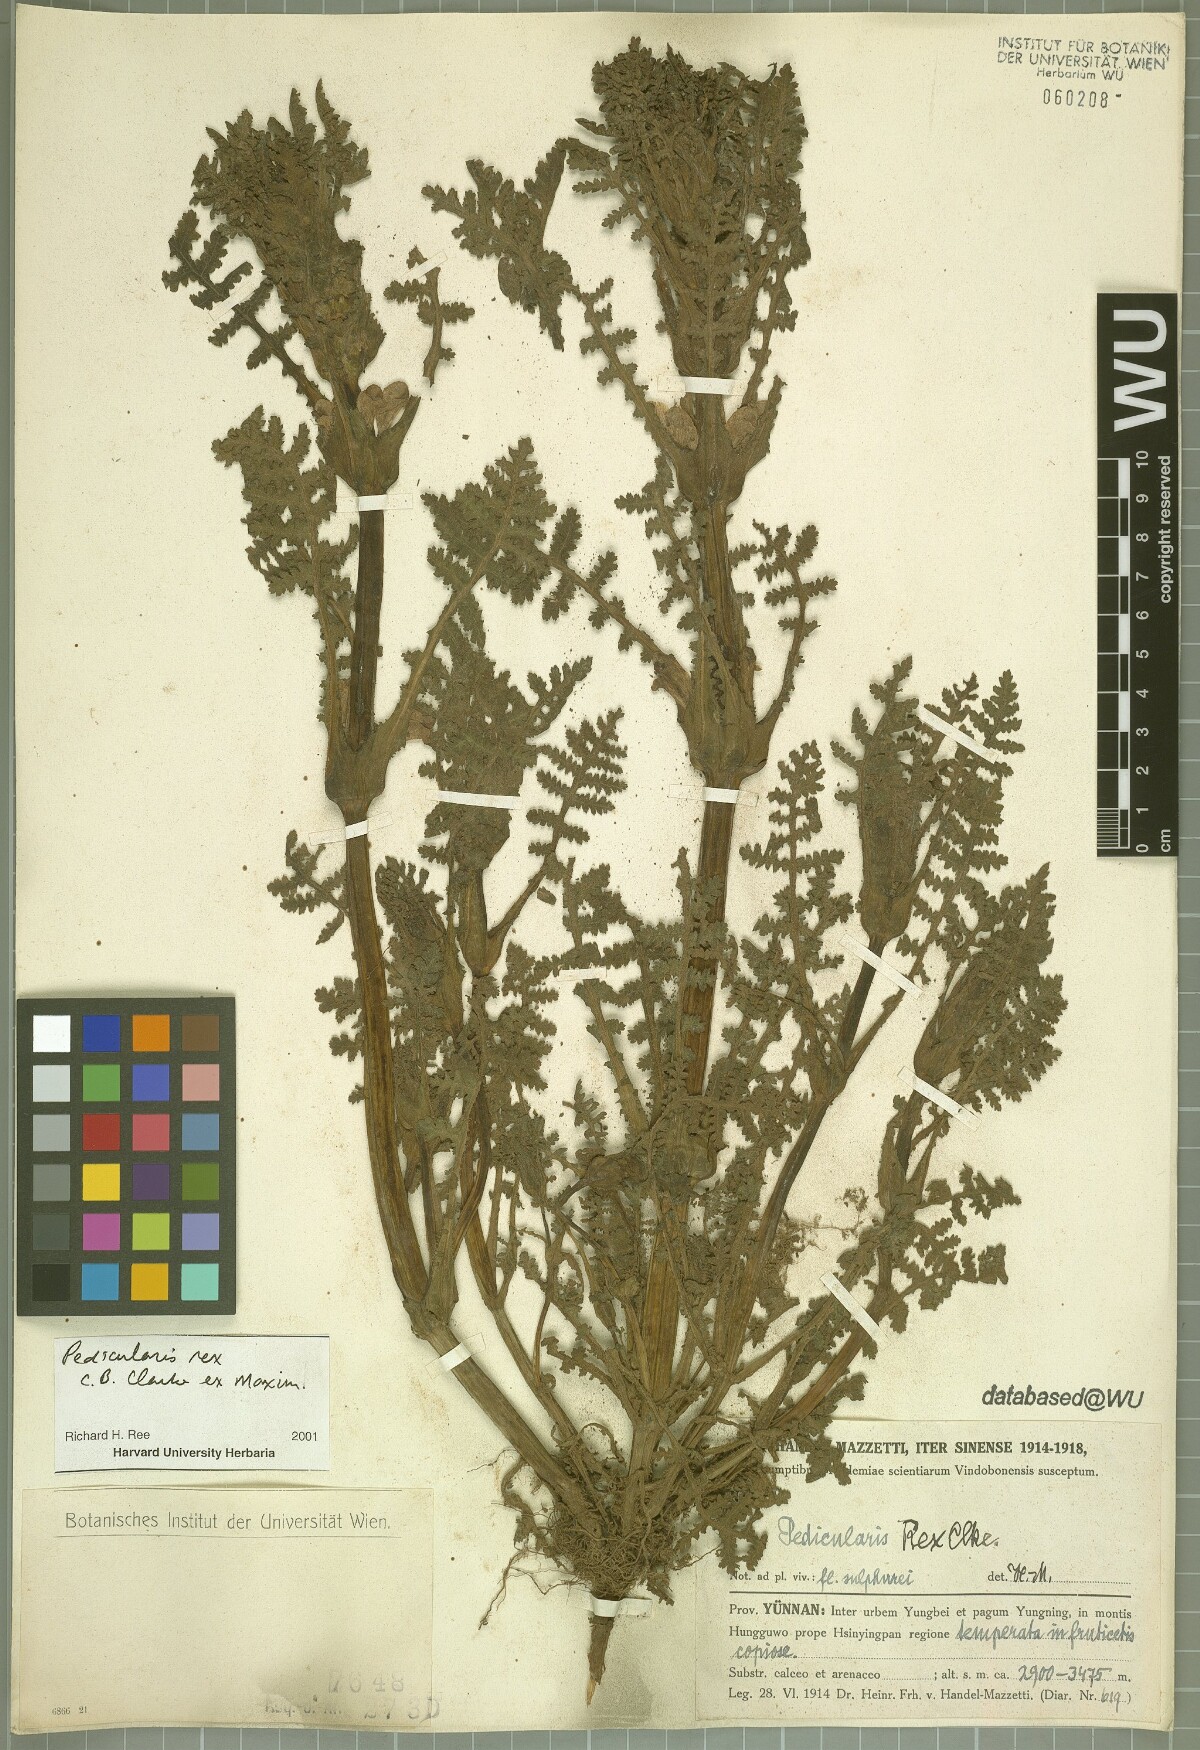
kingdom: Plantae
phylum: Tracheophyta
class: Magnoliopsida
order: Lamiales
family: Orobanchaceae
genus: Pedicularis
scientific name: Pedicularis rex
